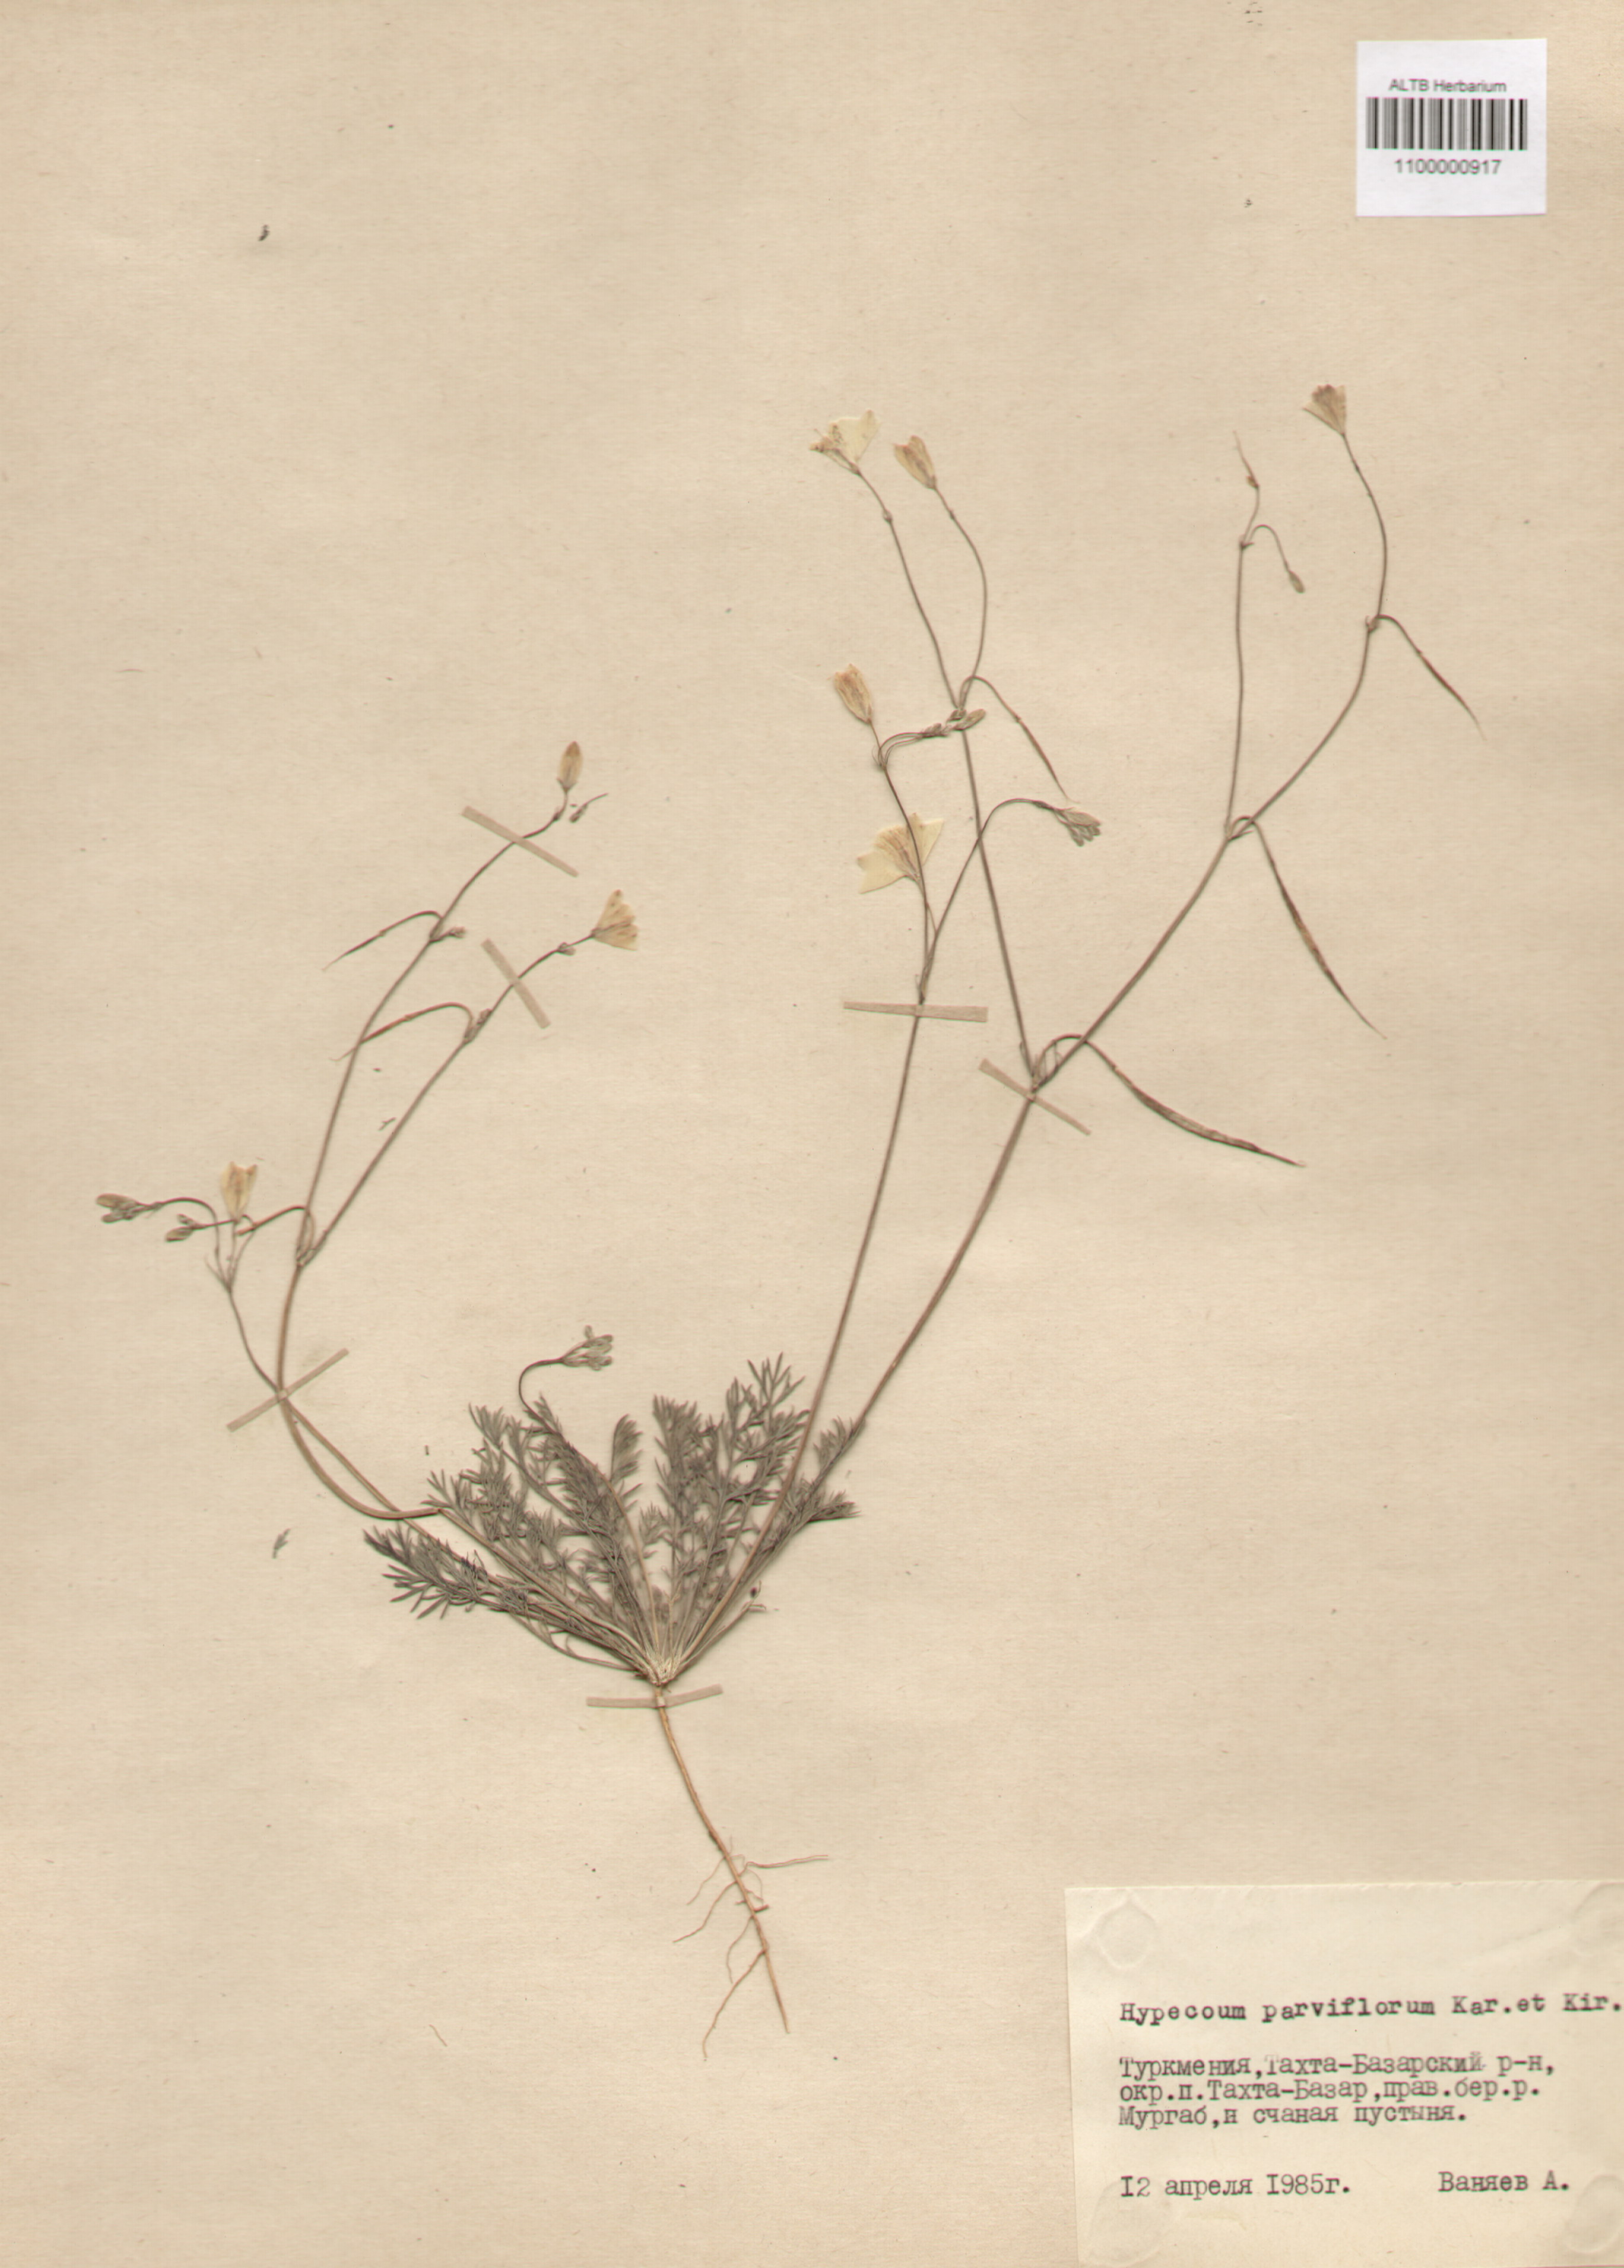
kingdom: Plantae
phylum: Tracheophyta
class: Magnoliopsida
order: Ranunculales
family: Papaveraceae
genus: Hypecoum
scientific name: Hypecoum parviflorum
